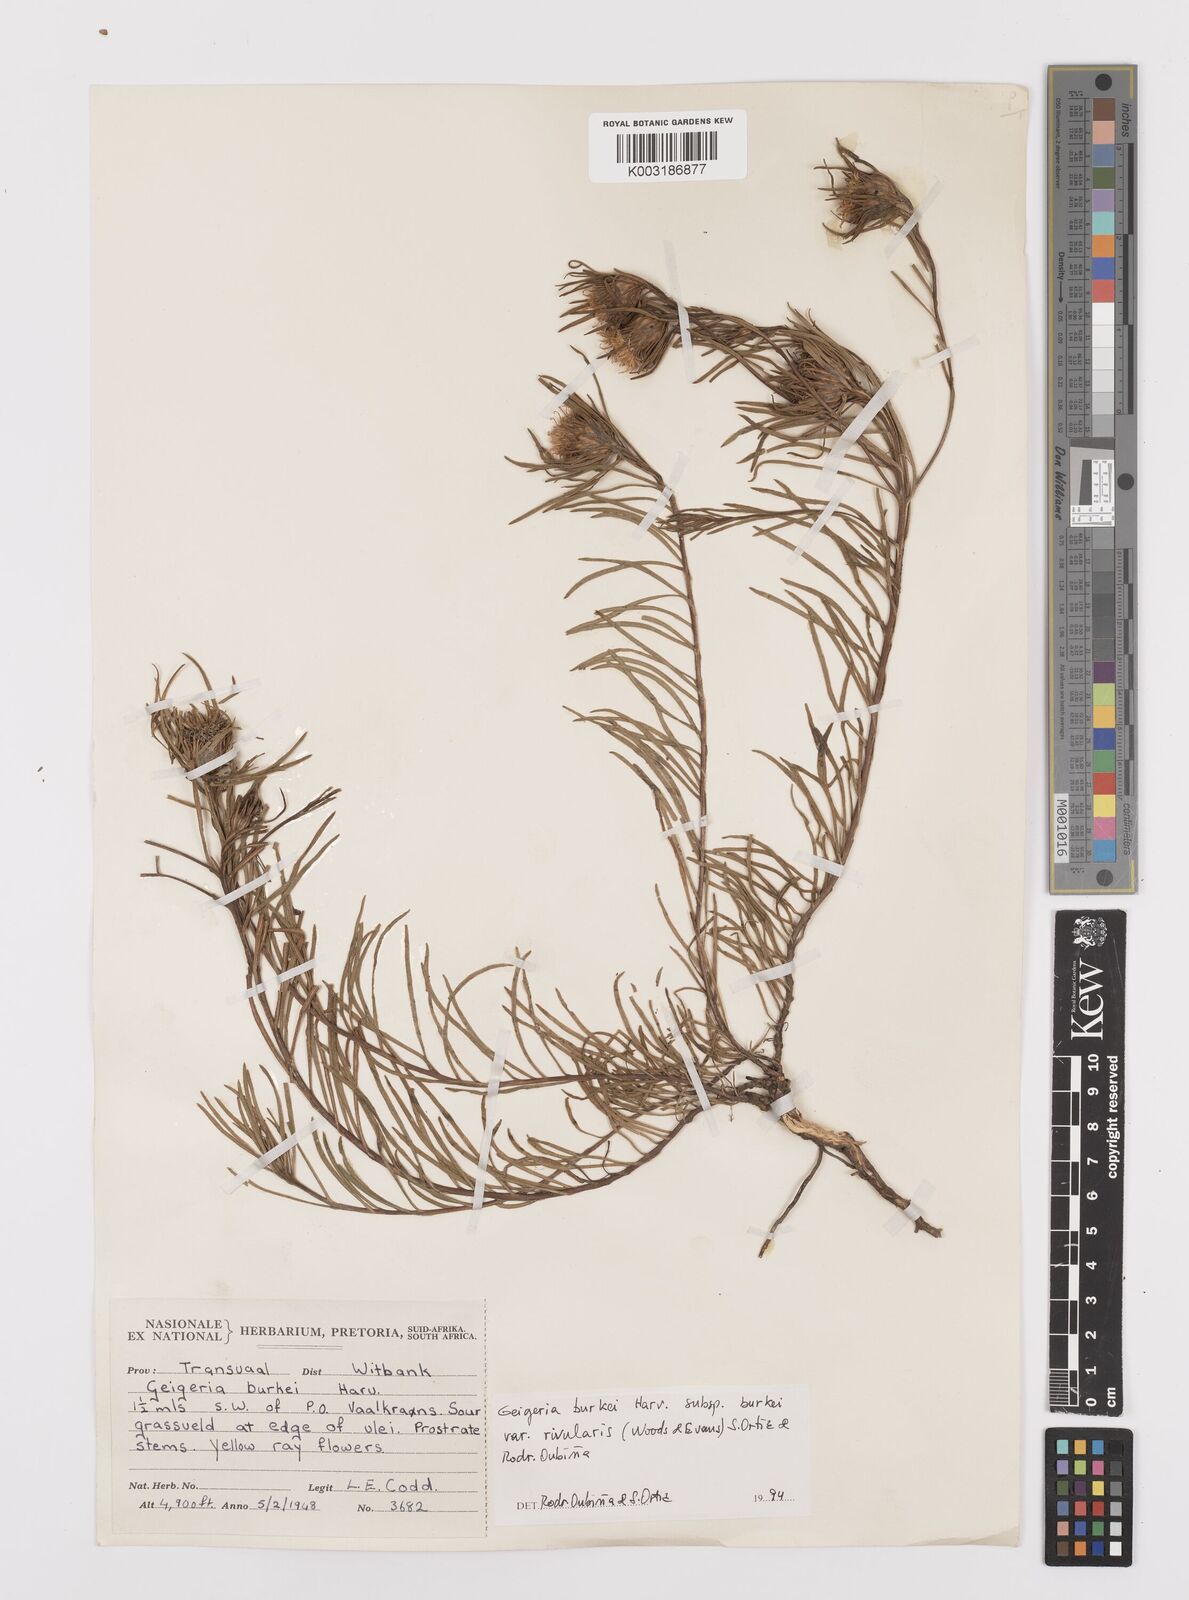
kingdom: Plantae
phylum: Tracheophyta
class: Magnoliopsida
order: Asterales
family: Asteraceae
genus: Geigeria
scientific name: Geigeria burkei
